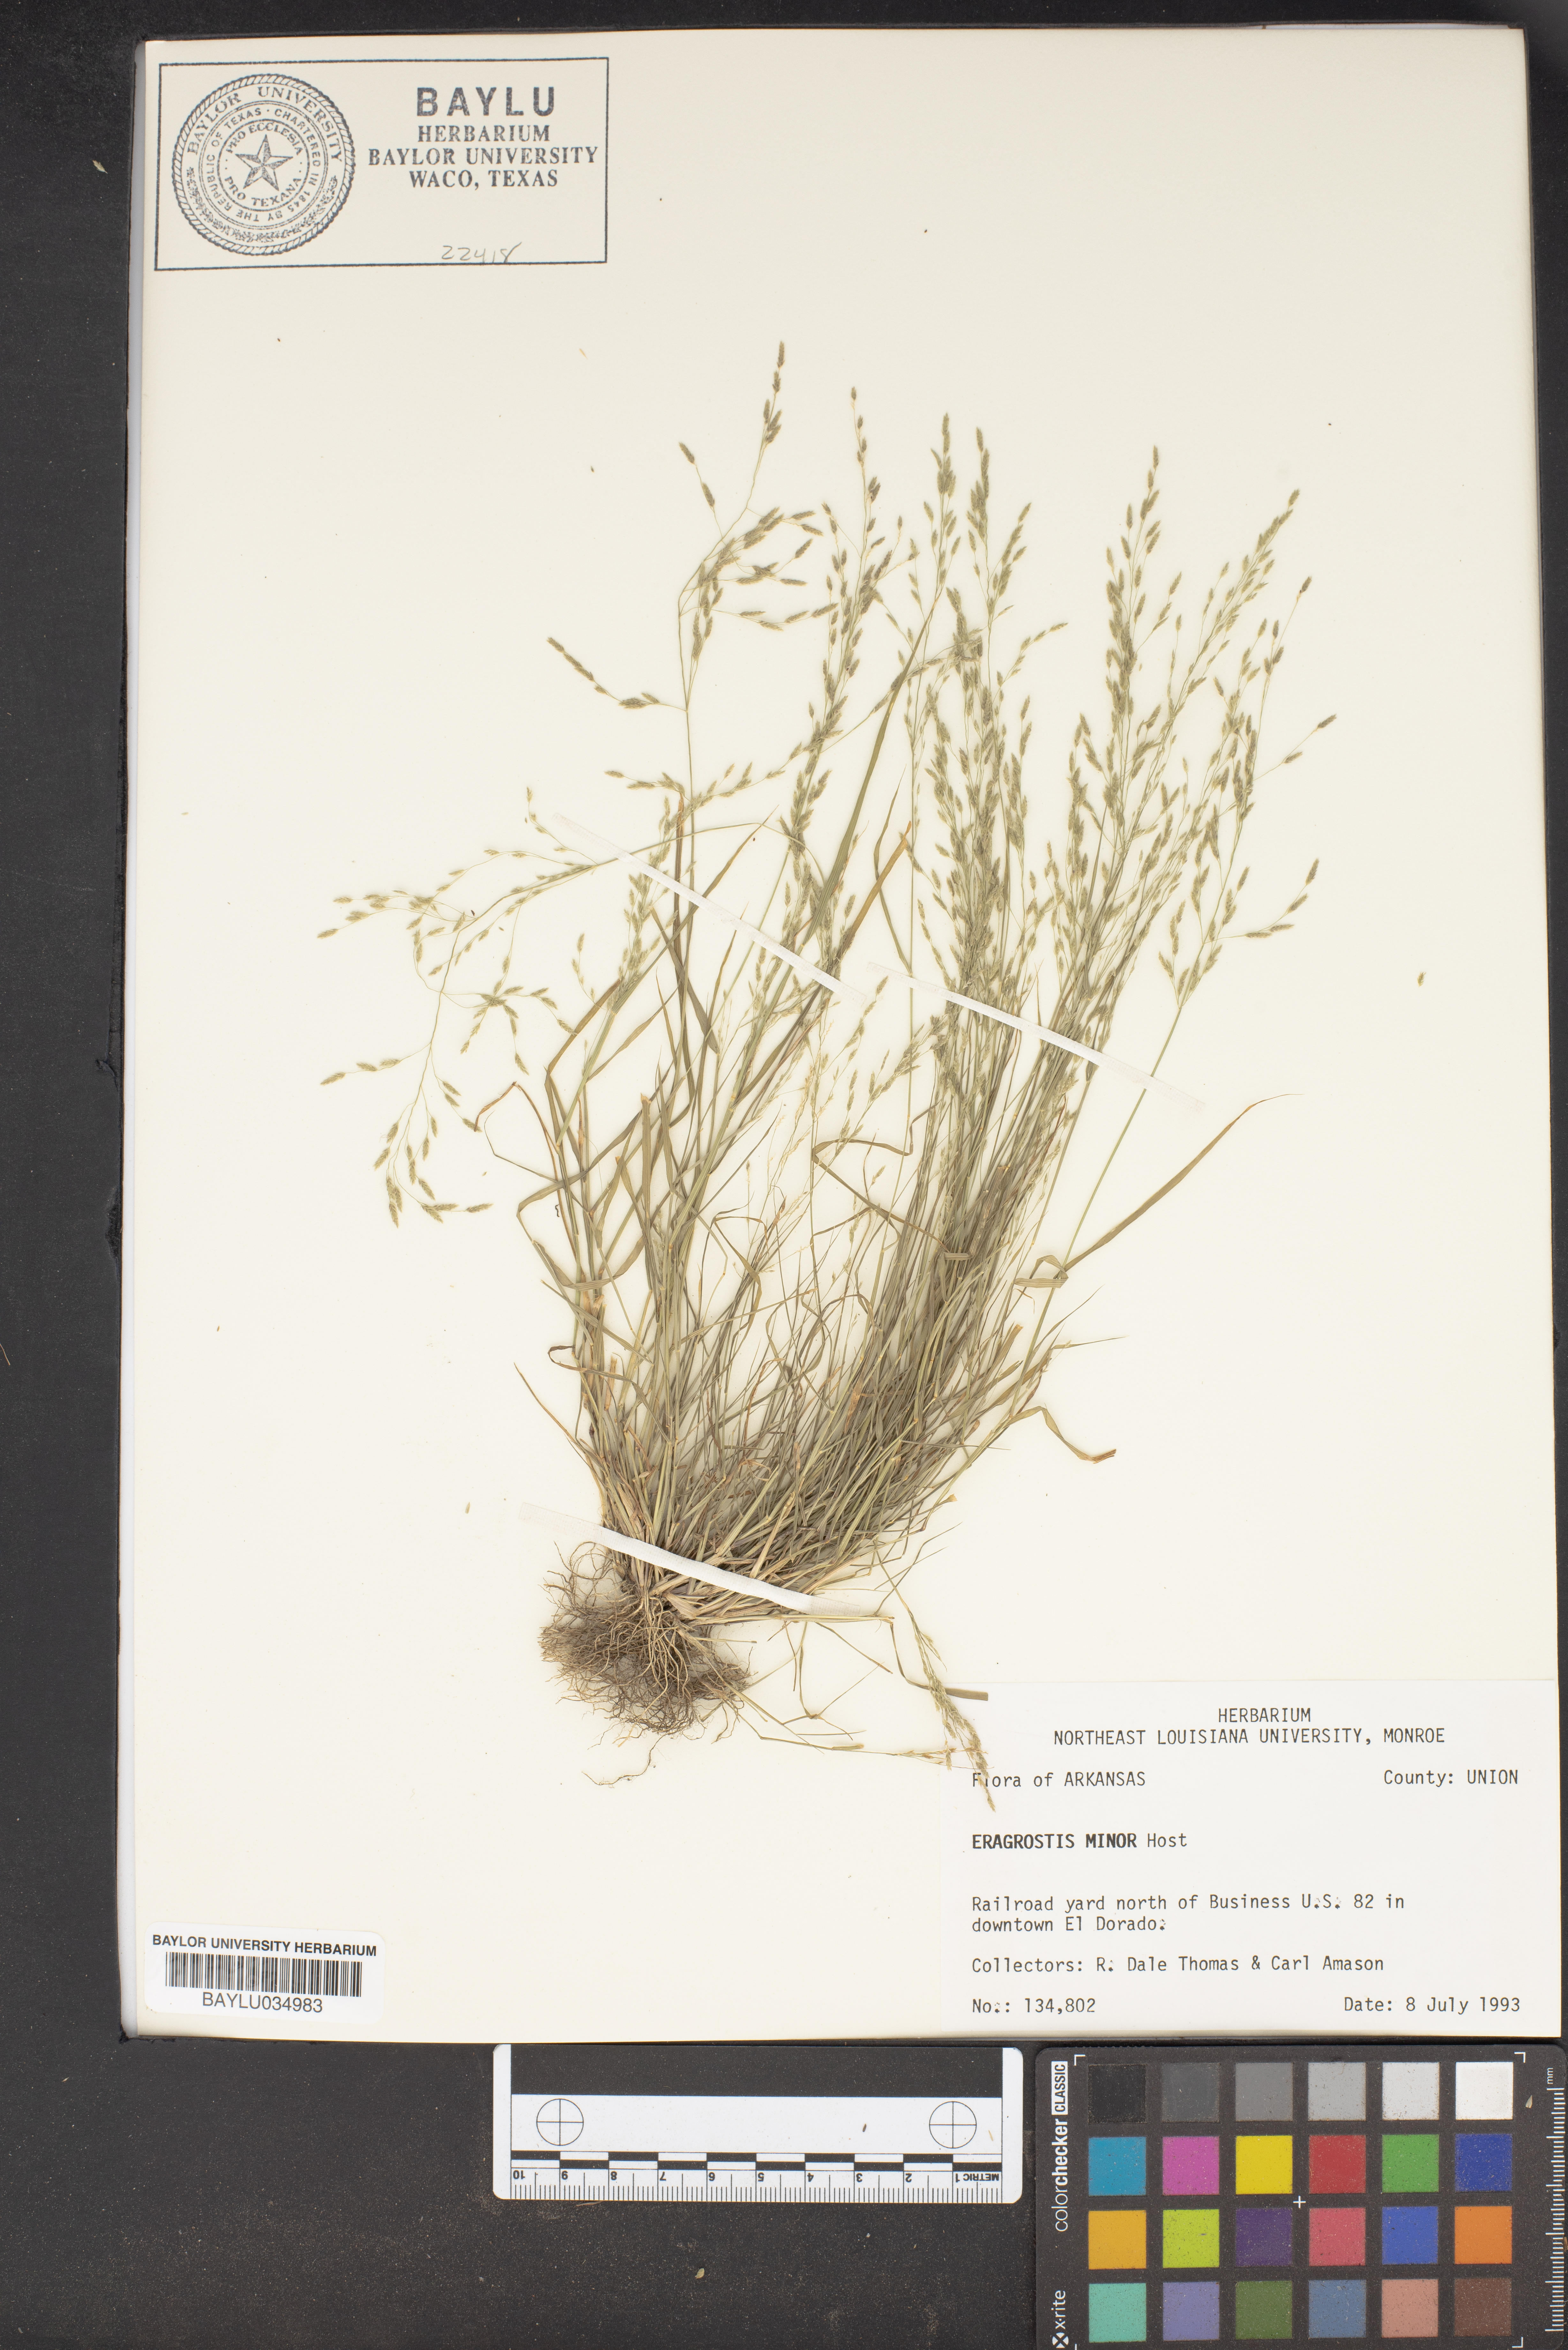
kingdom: Plantae
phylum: Tracheophyta
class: Liliopsida
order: Poales
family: Poaceae
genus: Eragrostis
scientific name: Eragrostis minor
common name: Small love-grass
